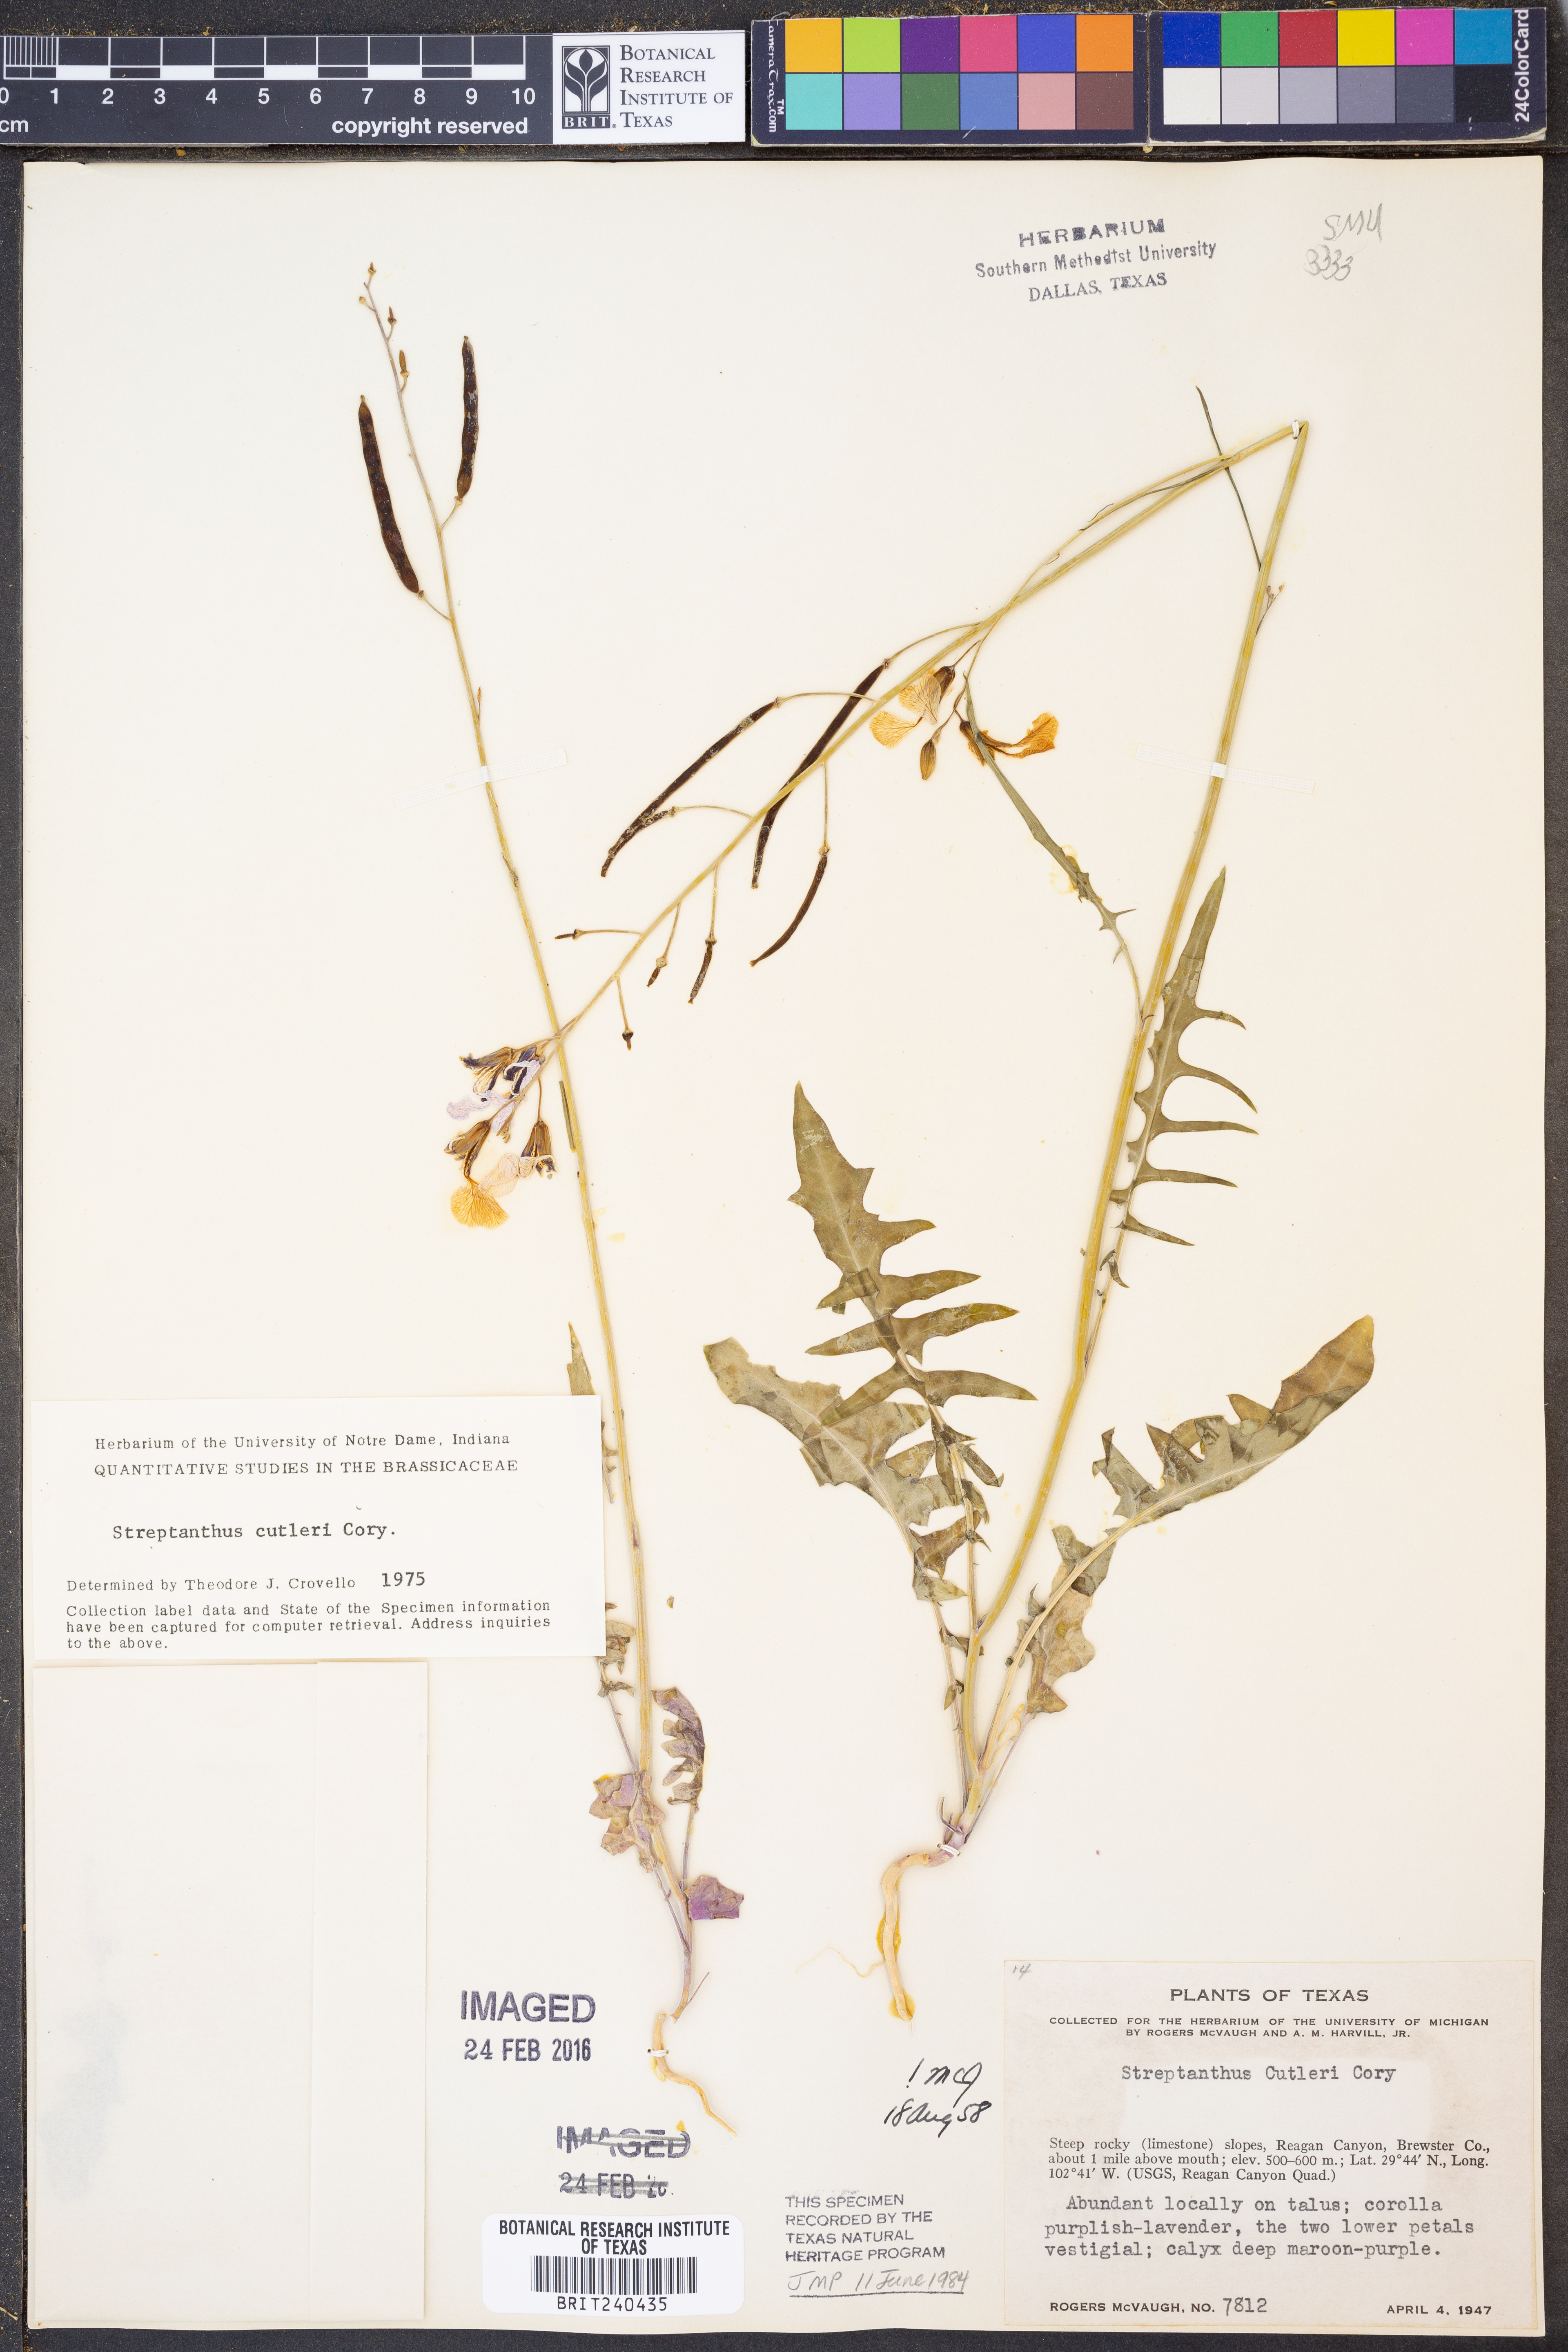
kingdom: Plantae
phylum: Tracheophyta
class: Magnoliopsida
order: Brassicales
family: Brassicaceae
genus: Streptanthus
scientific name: Streptanthus cutleri
